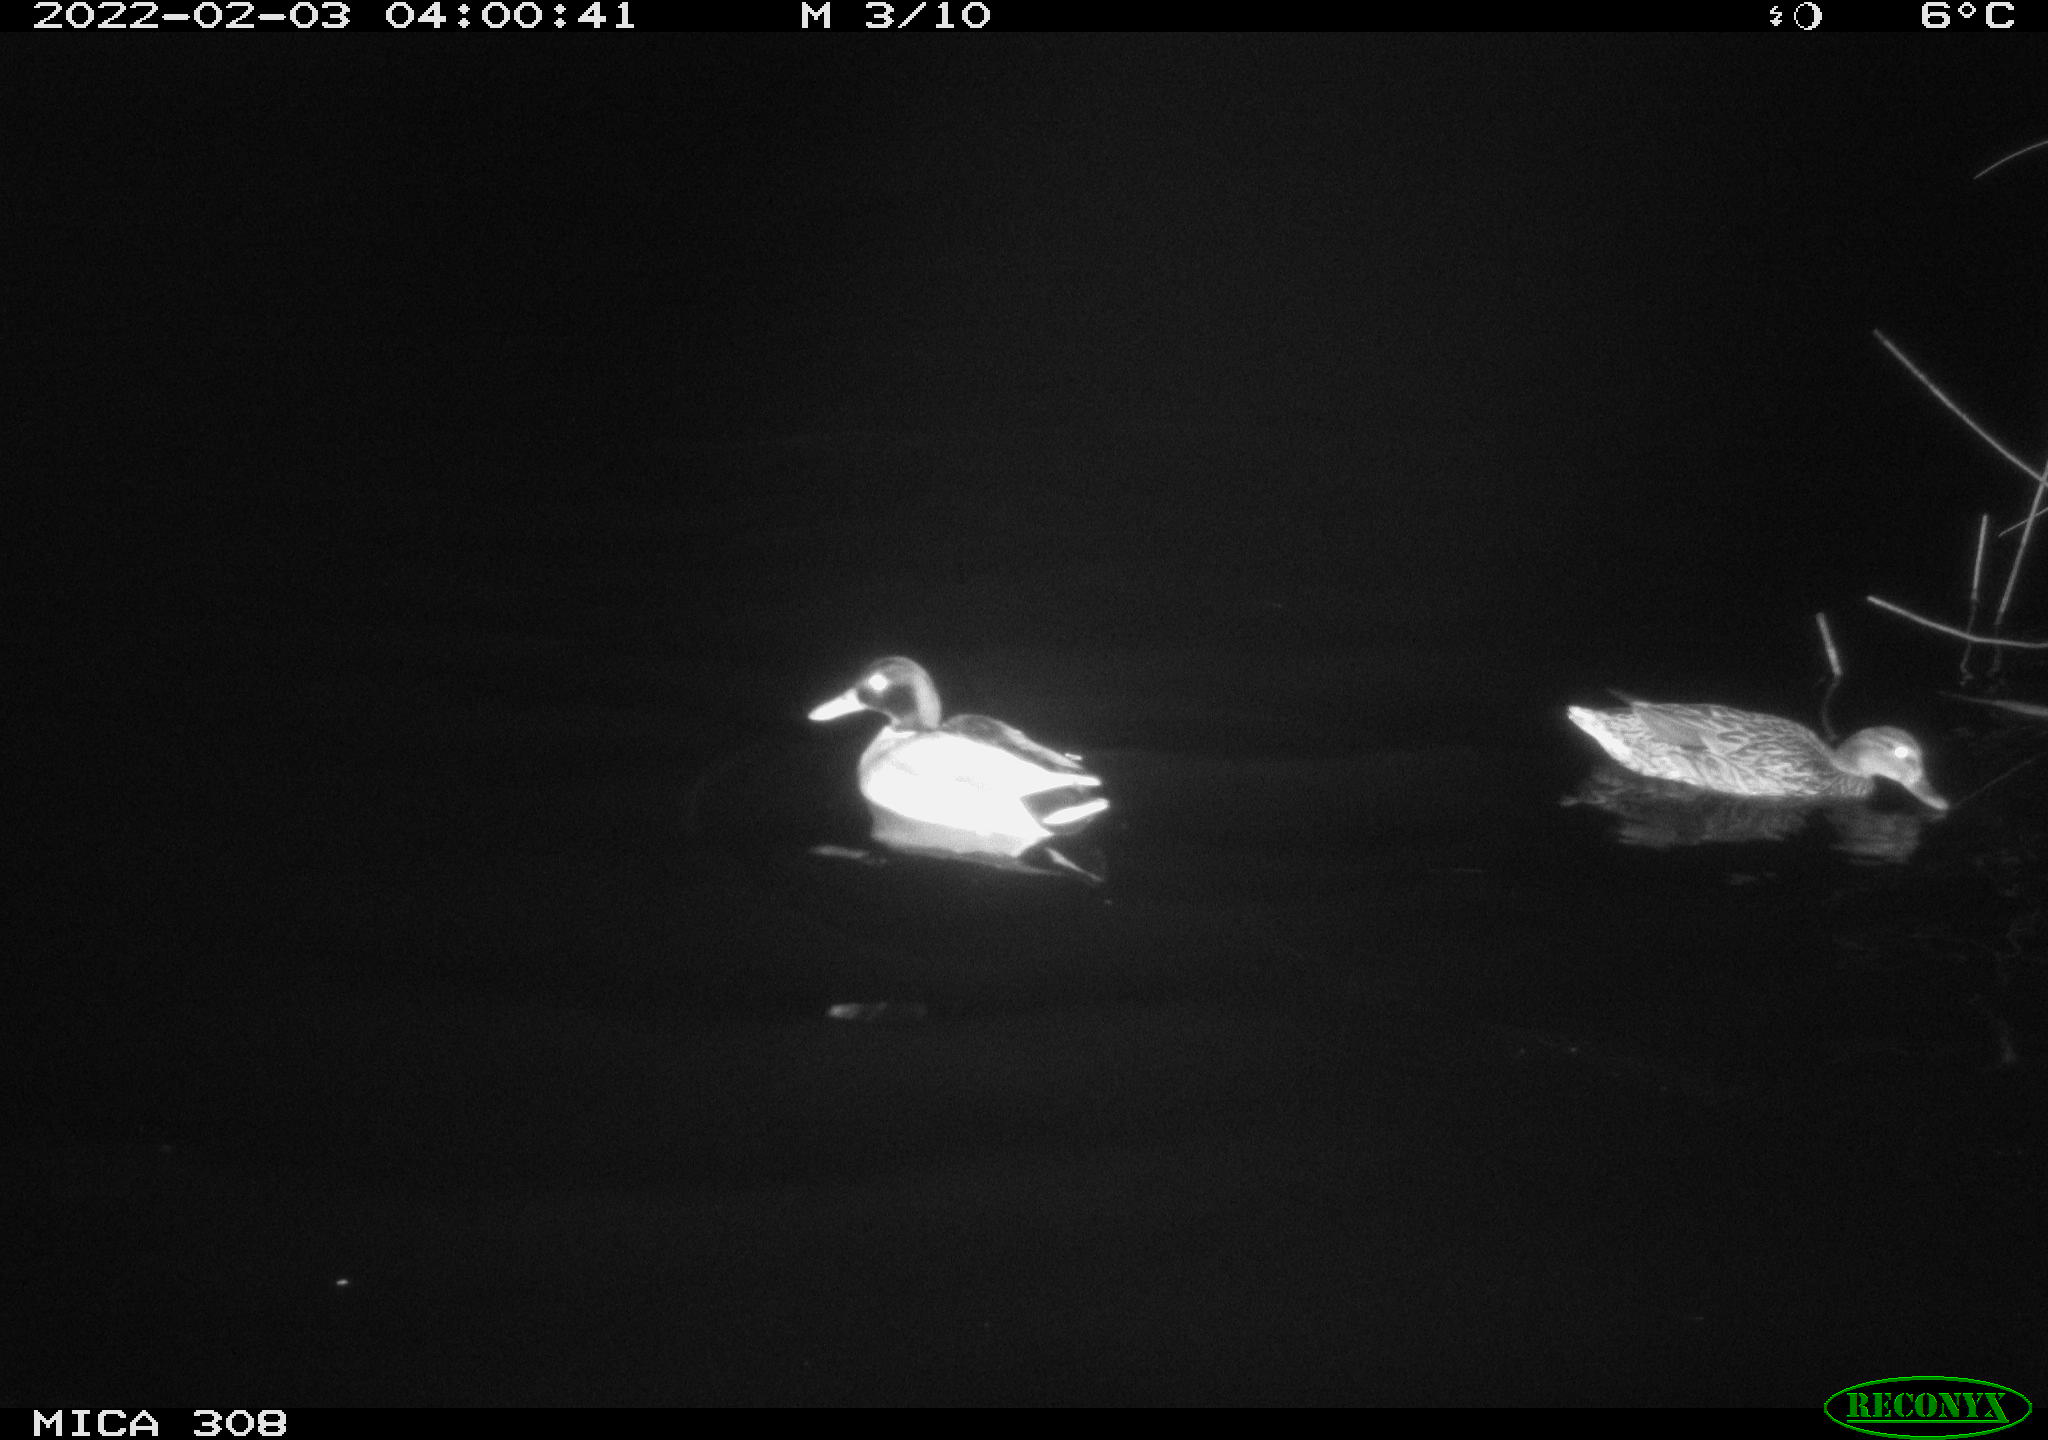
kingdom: Animalia
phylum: Chordata
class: Aves
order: Anseriformes
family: Anatidae
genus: Anas
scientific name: Anas
